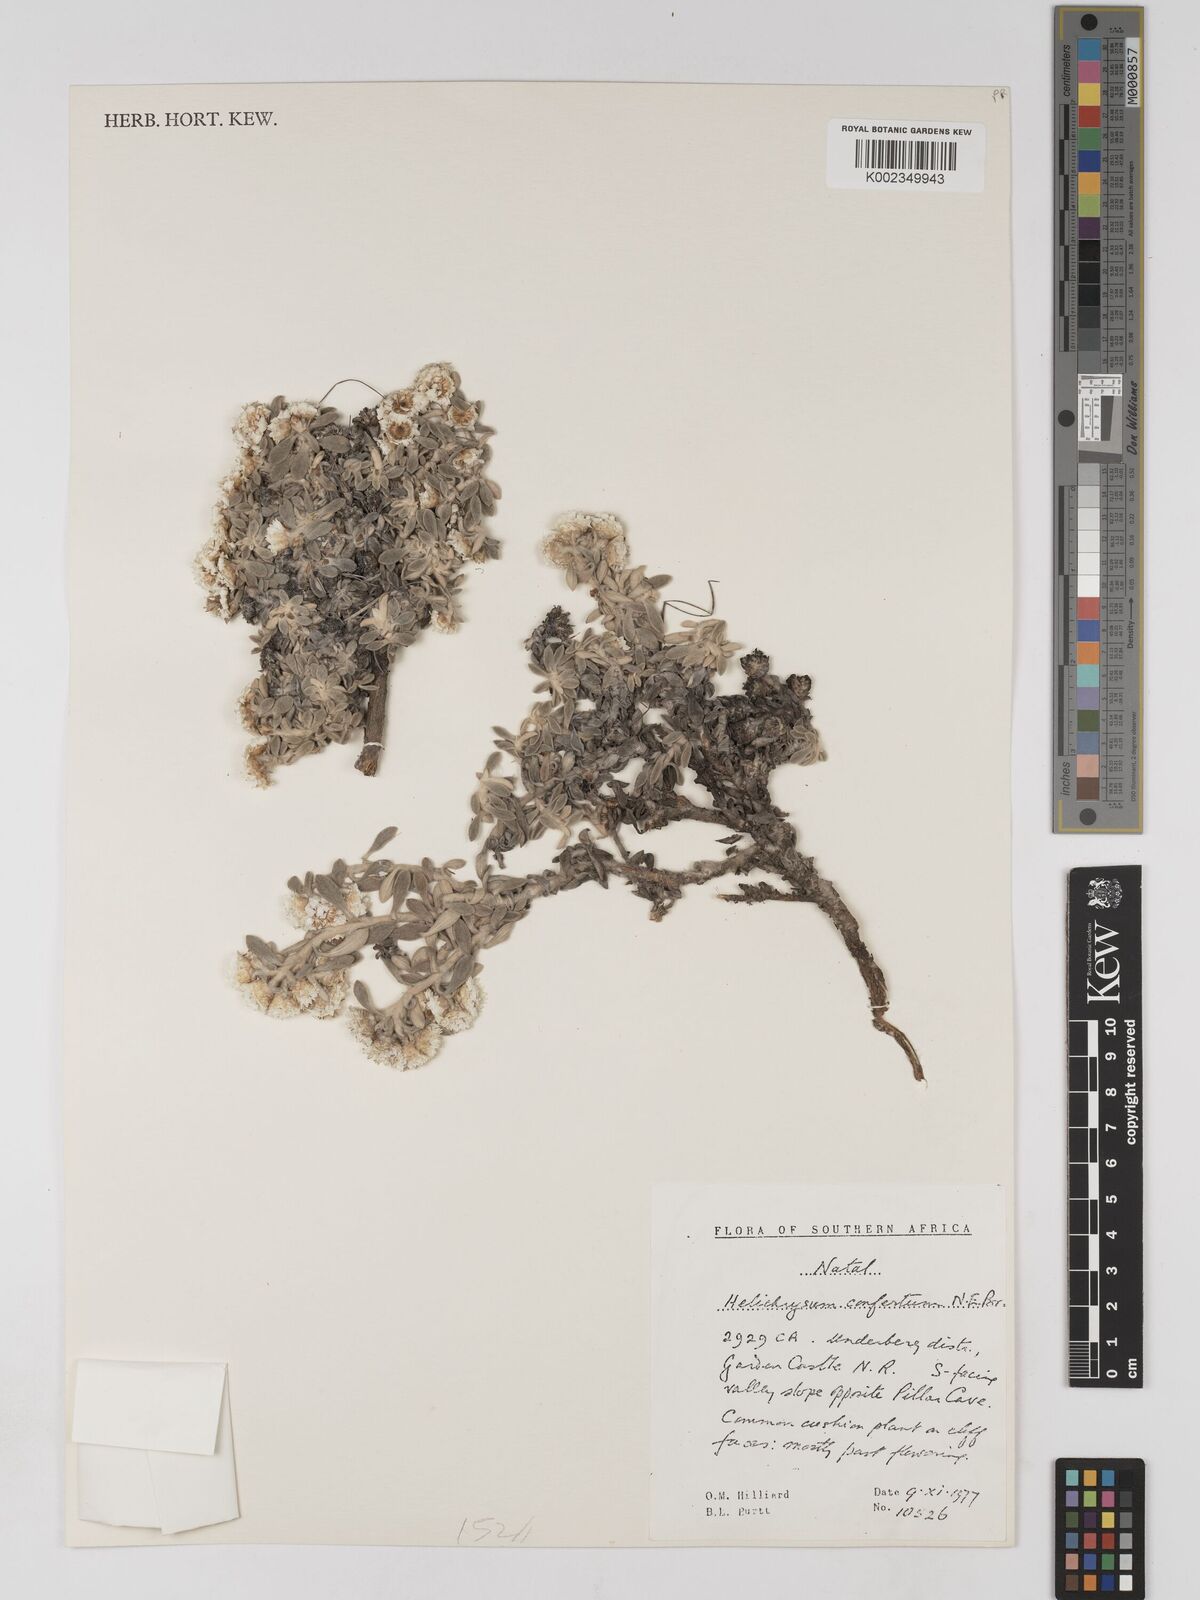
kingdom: Plantae
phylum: Tracheophyta
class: Magnoliopsida
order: Asterales
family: Asteraceae
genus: Helichrysum
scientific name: Helichrysum confertum
